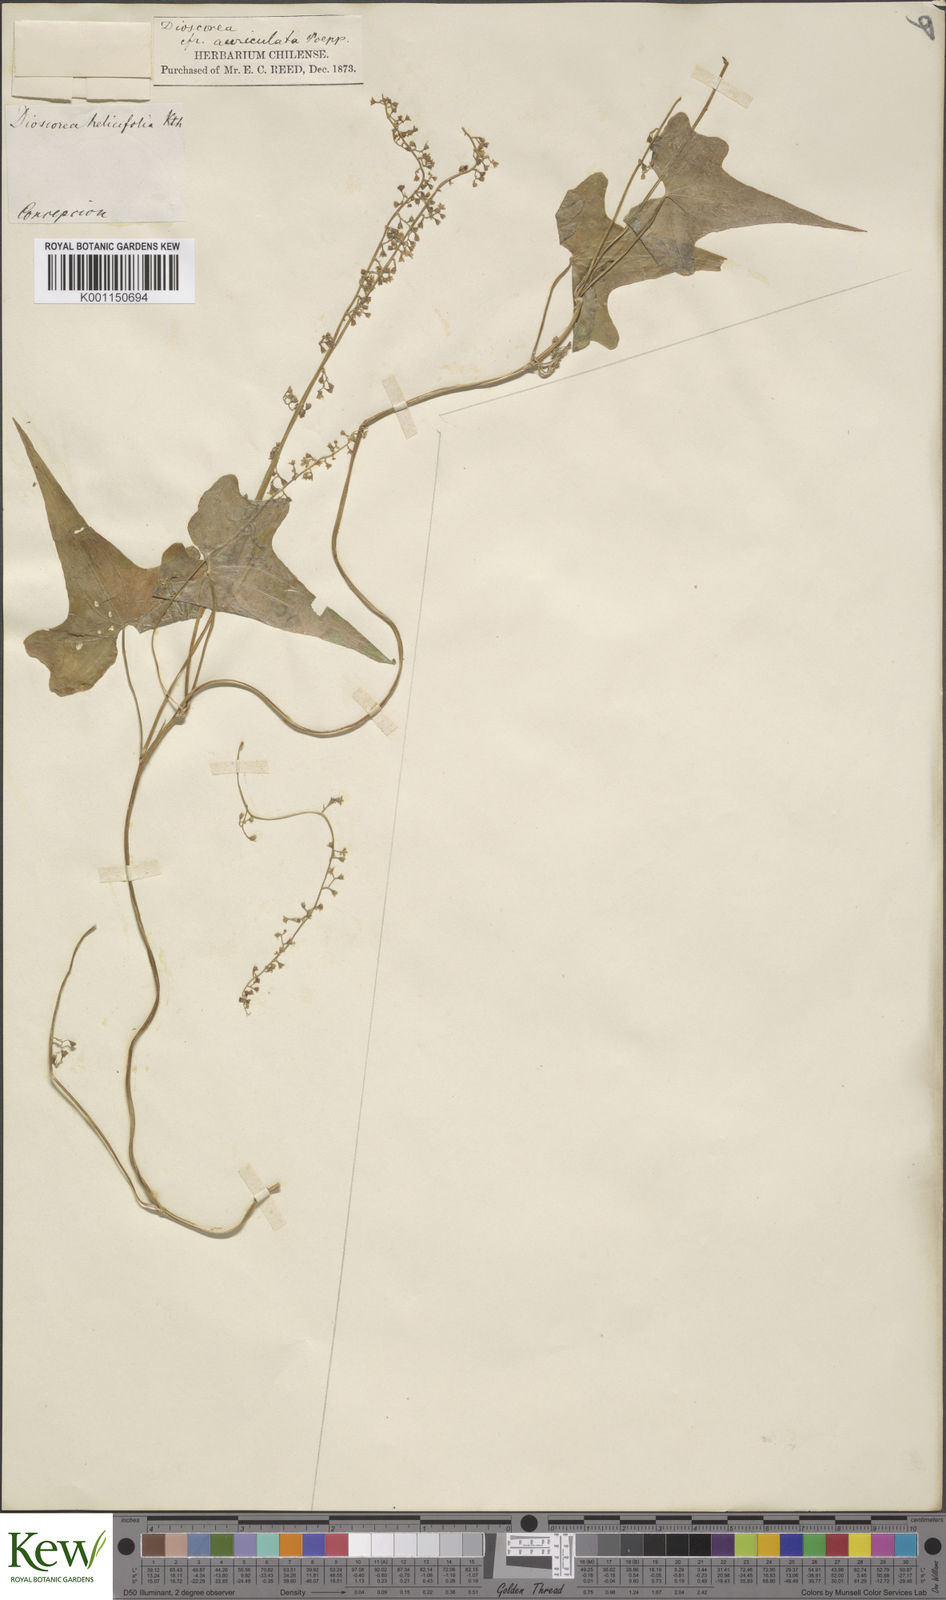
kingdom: Plantae
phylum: Tracheophyta
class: Liliopsida
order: Dioscoreales
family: Dioscoreaceae
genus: Dioscorea
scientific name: Dioscorea auriculata
